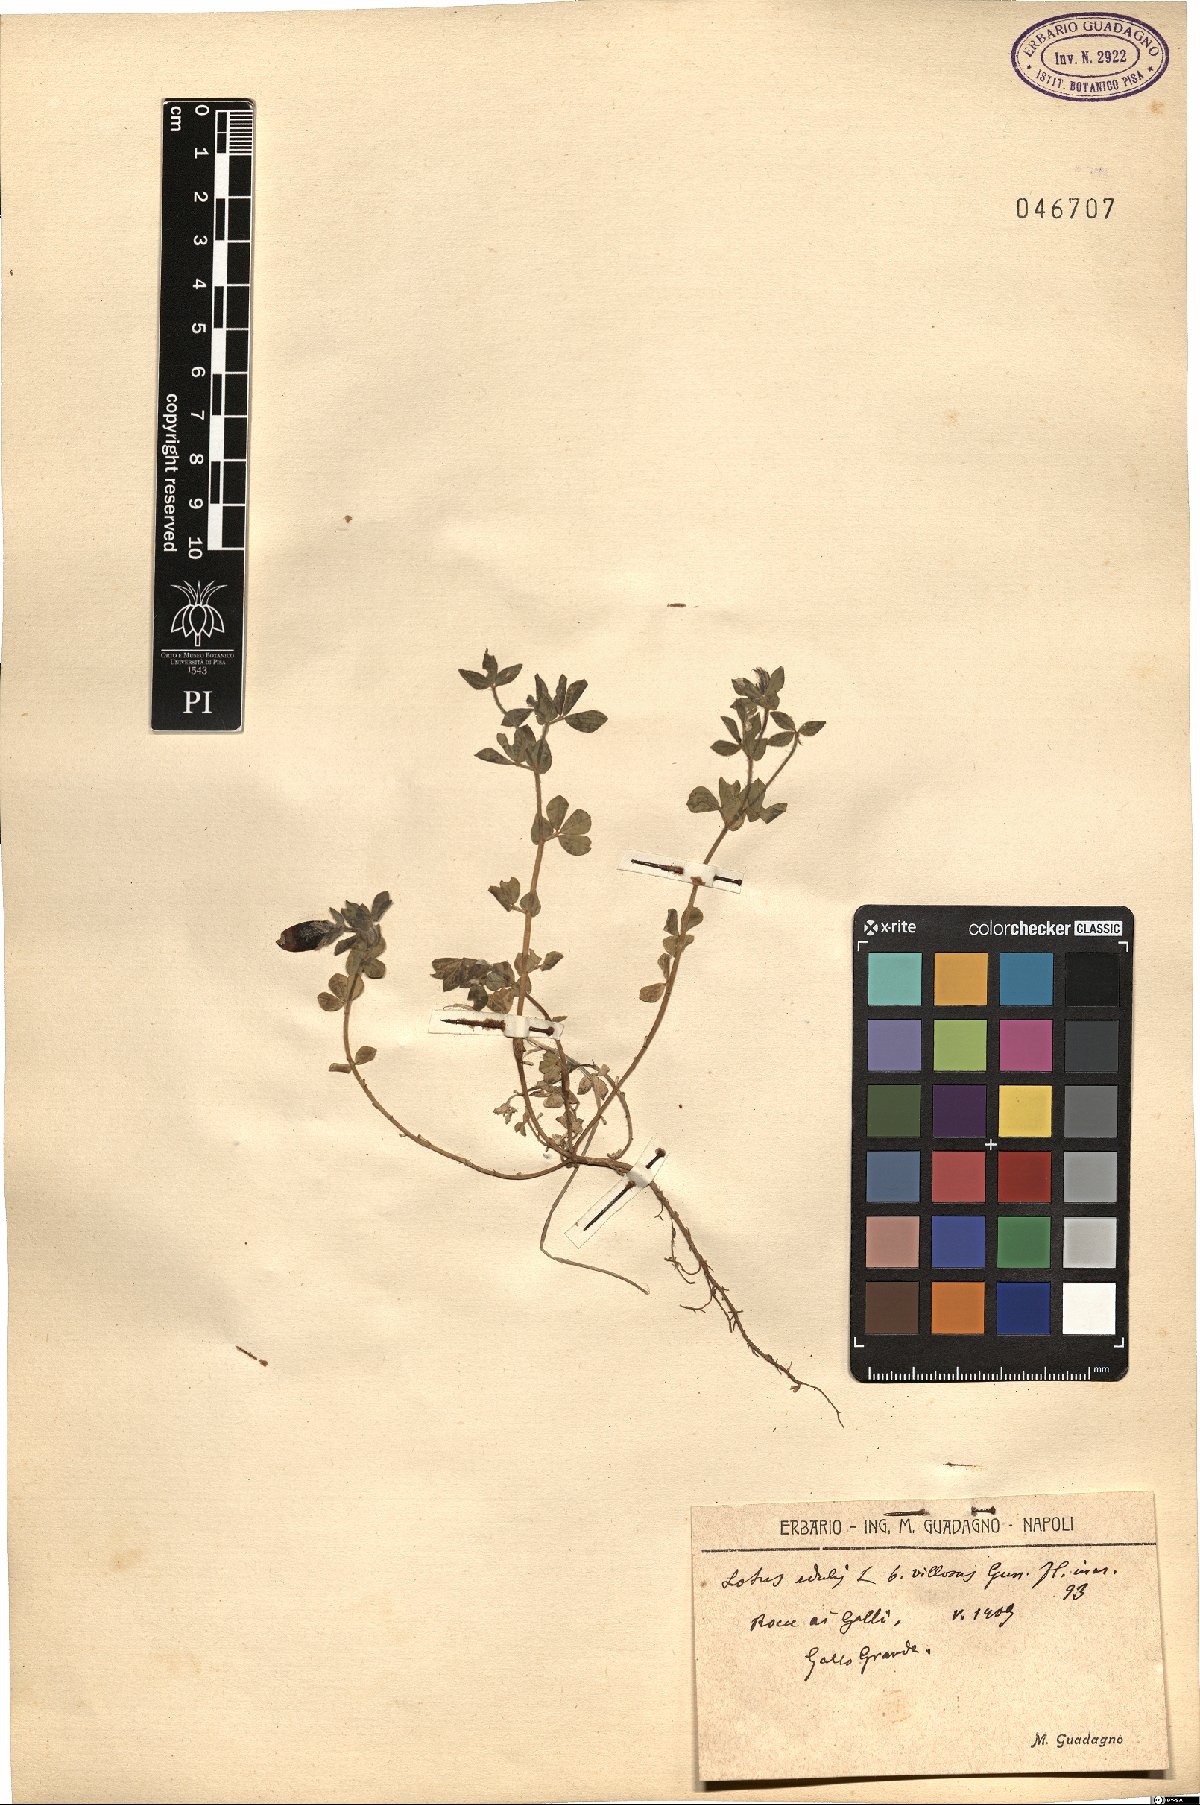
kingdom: Plantae
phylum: Tracheophyta
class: Magnoliopsida
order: Fabales
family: Fabaceae
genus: Lotus
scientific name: Lotus edulis
